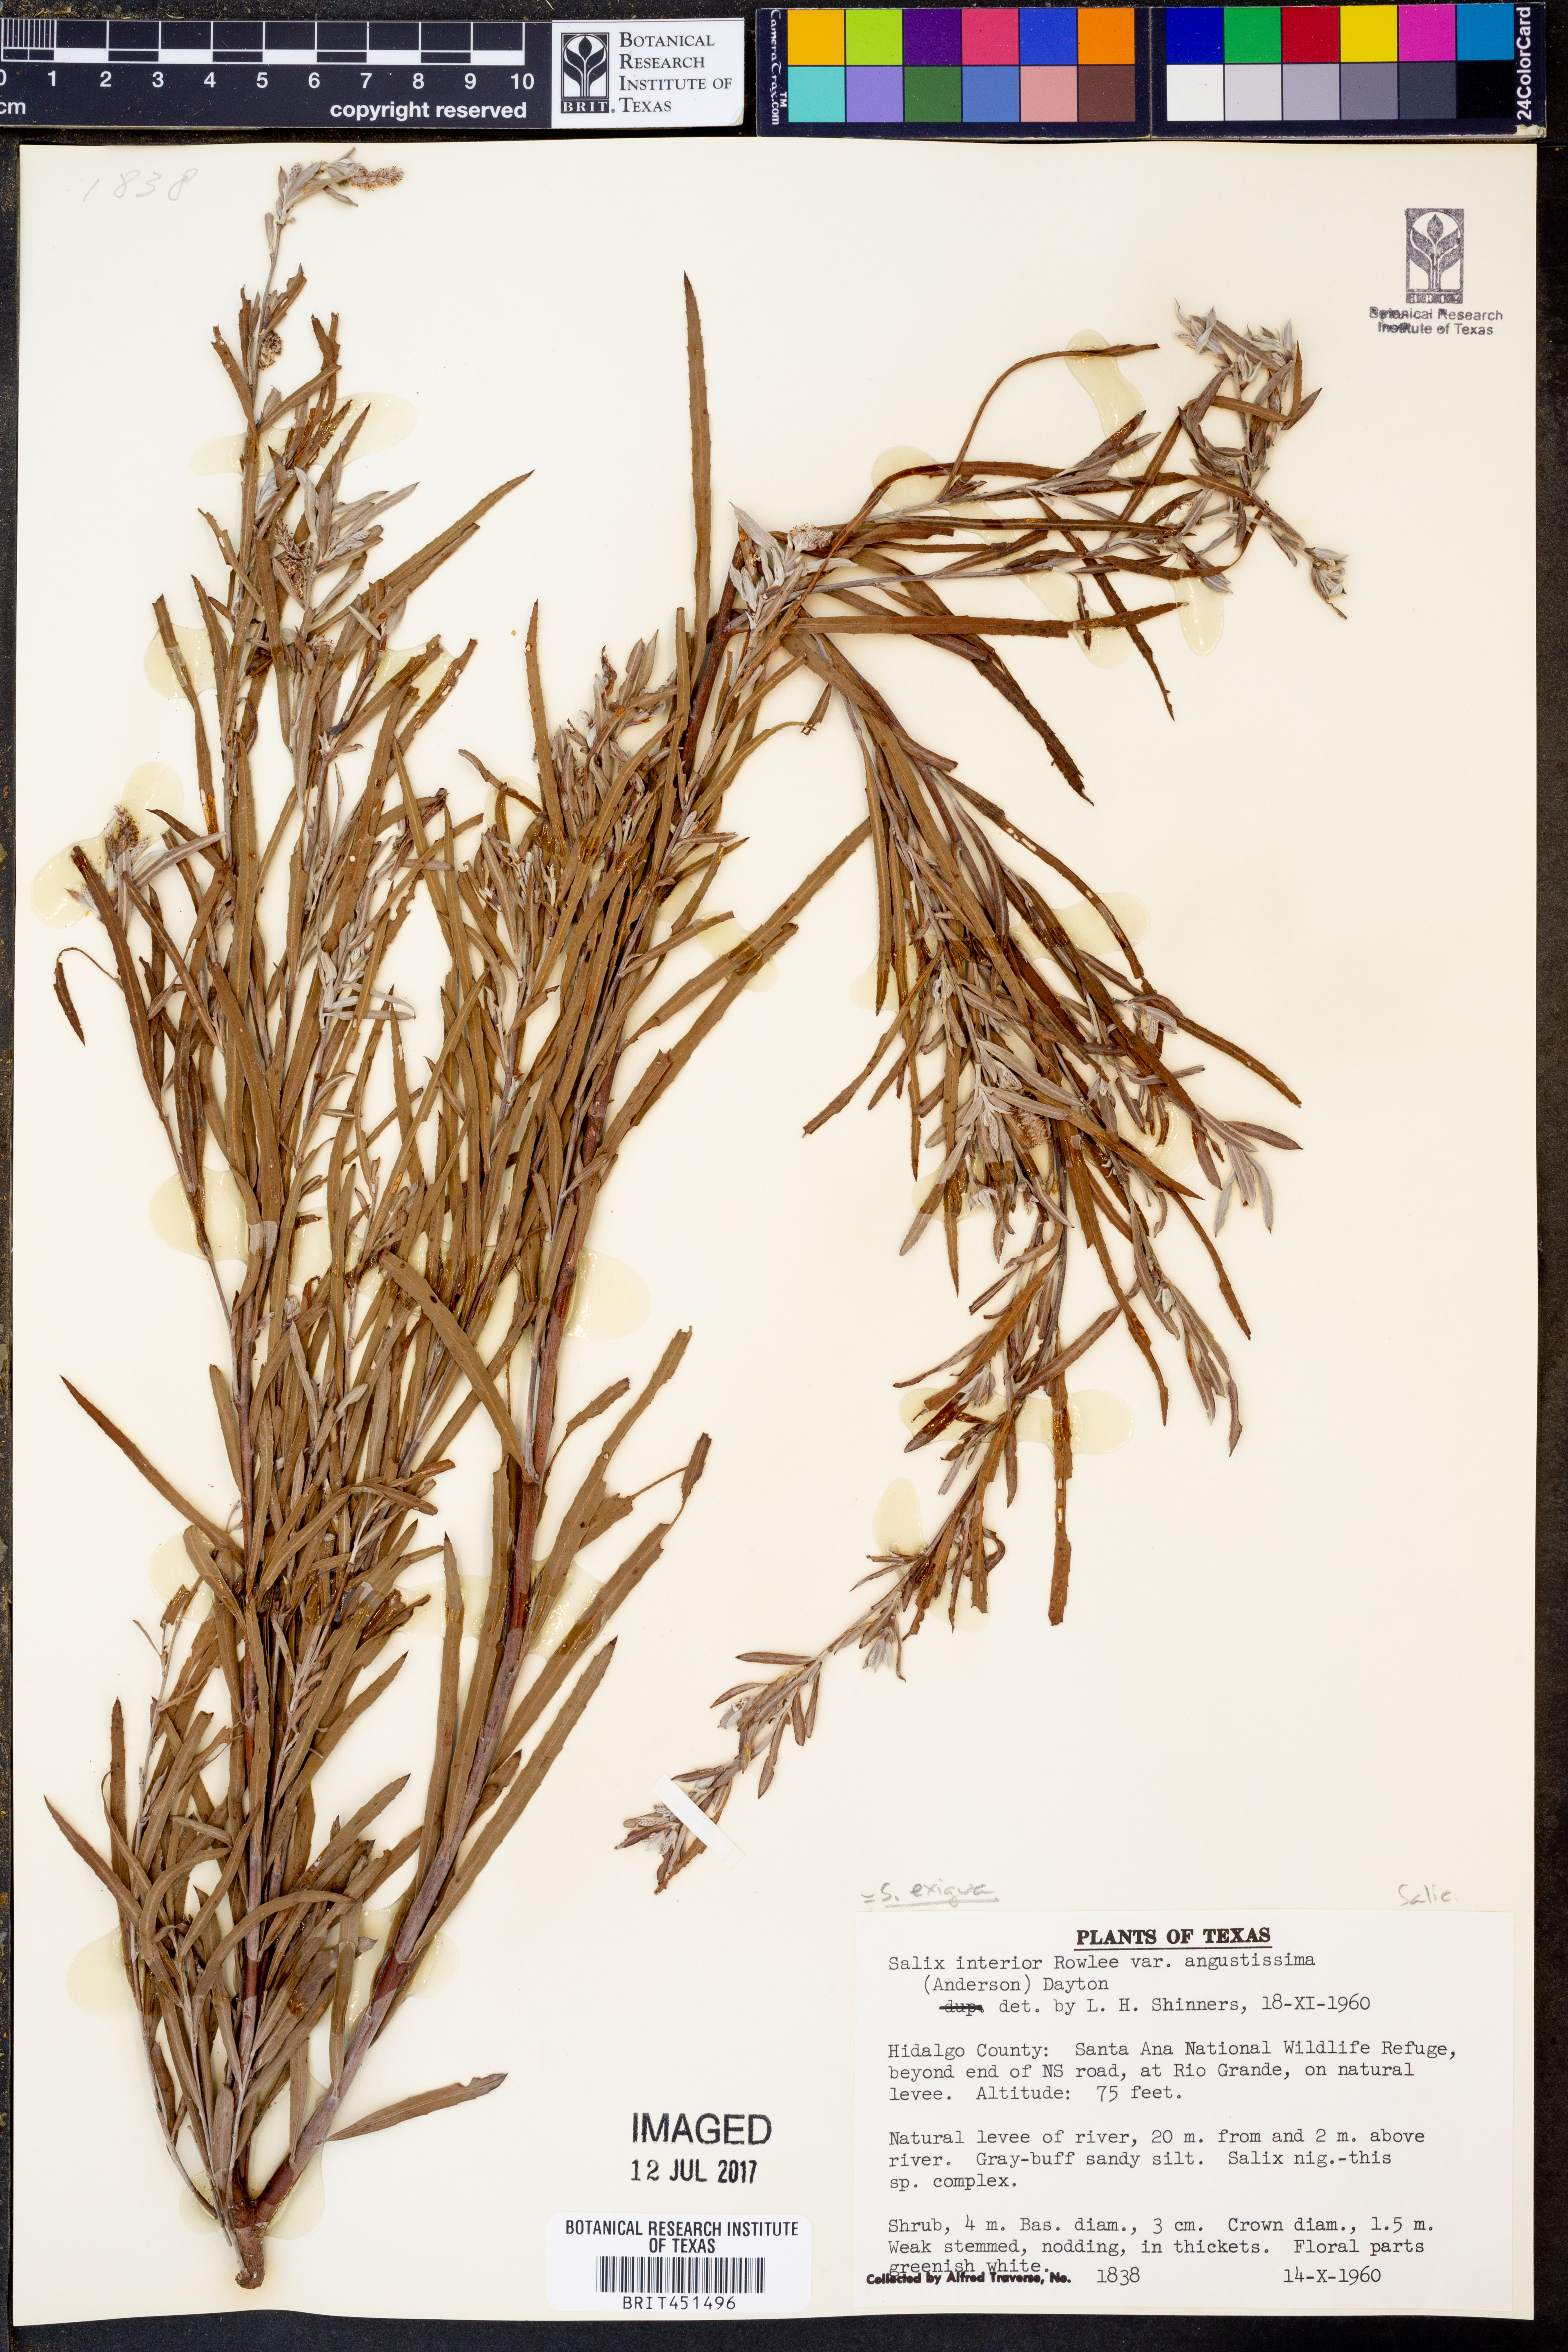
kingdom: Plantae
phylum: Tracheophyta
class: Magnoliopsida
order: Malpighiales
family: Salicaceae
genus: Salix
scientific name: Salix exigua
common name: Coyote willow
